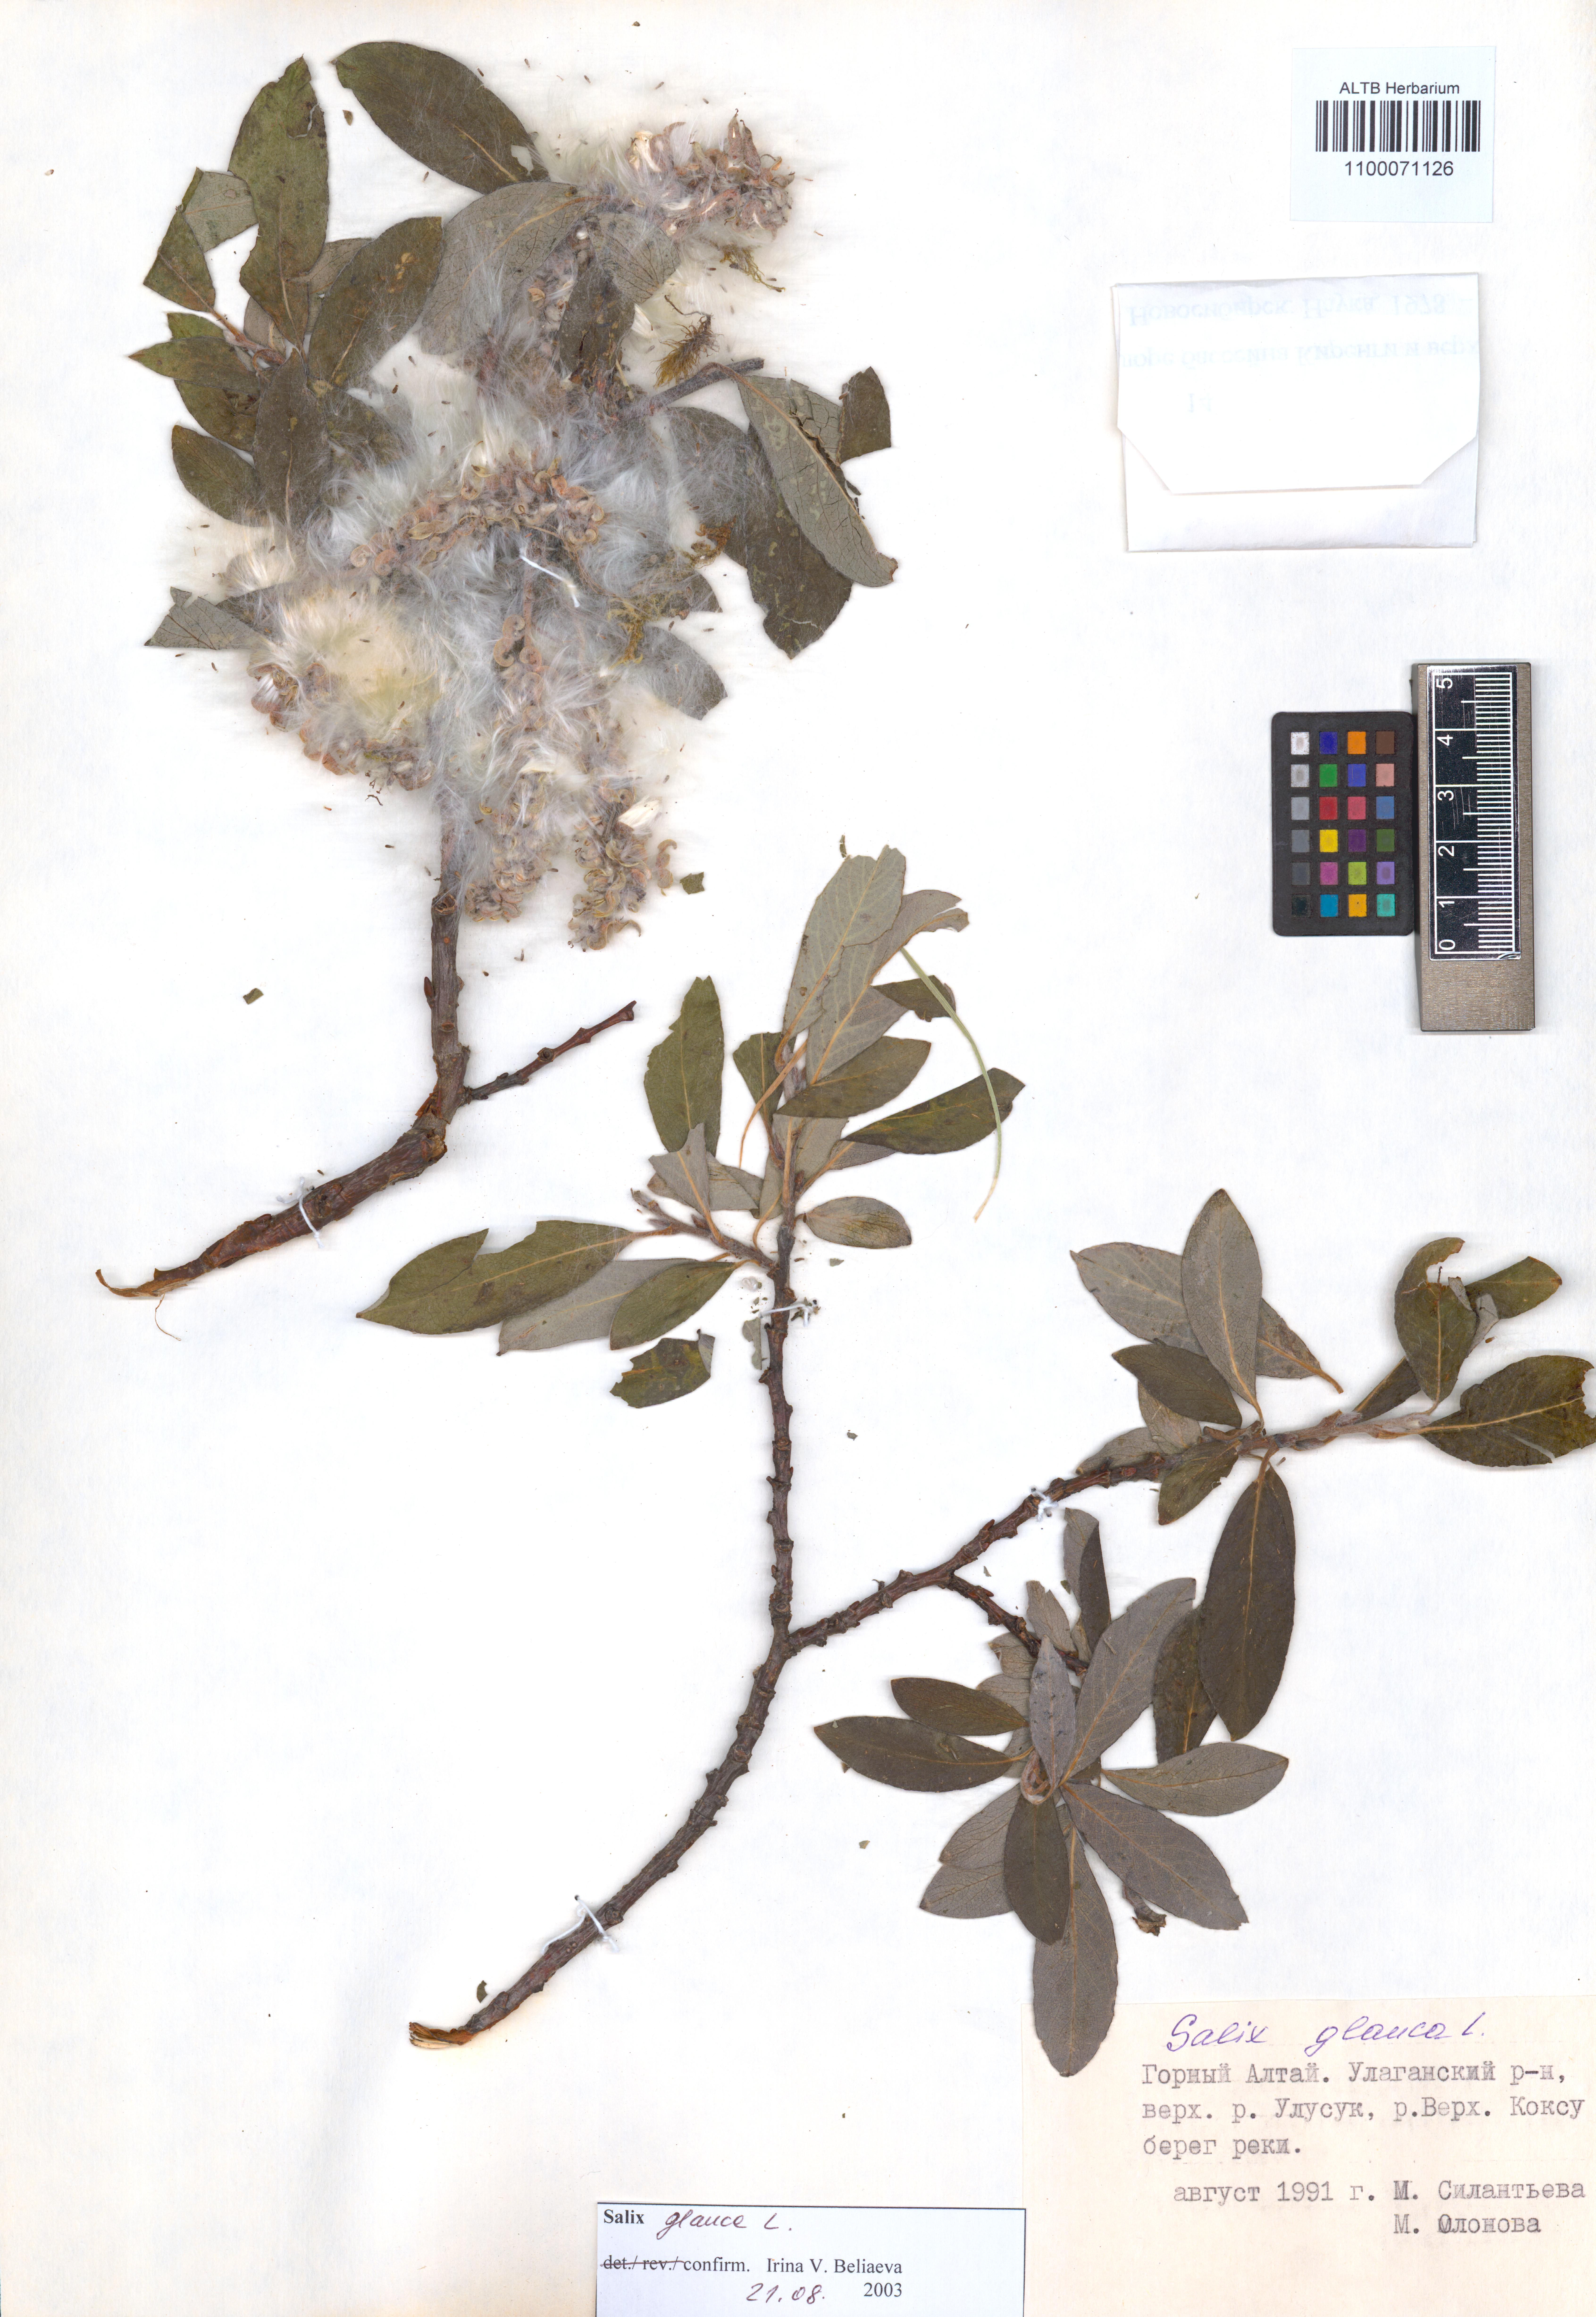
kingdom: Plantae
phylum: Tracheophyta
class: Magnoliopsida
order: Malpighiales
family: Salicaceae
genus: Salix
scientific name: Salix glauca
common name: Glaucous willow
